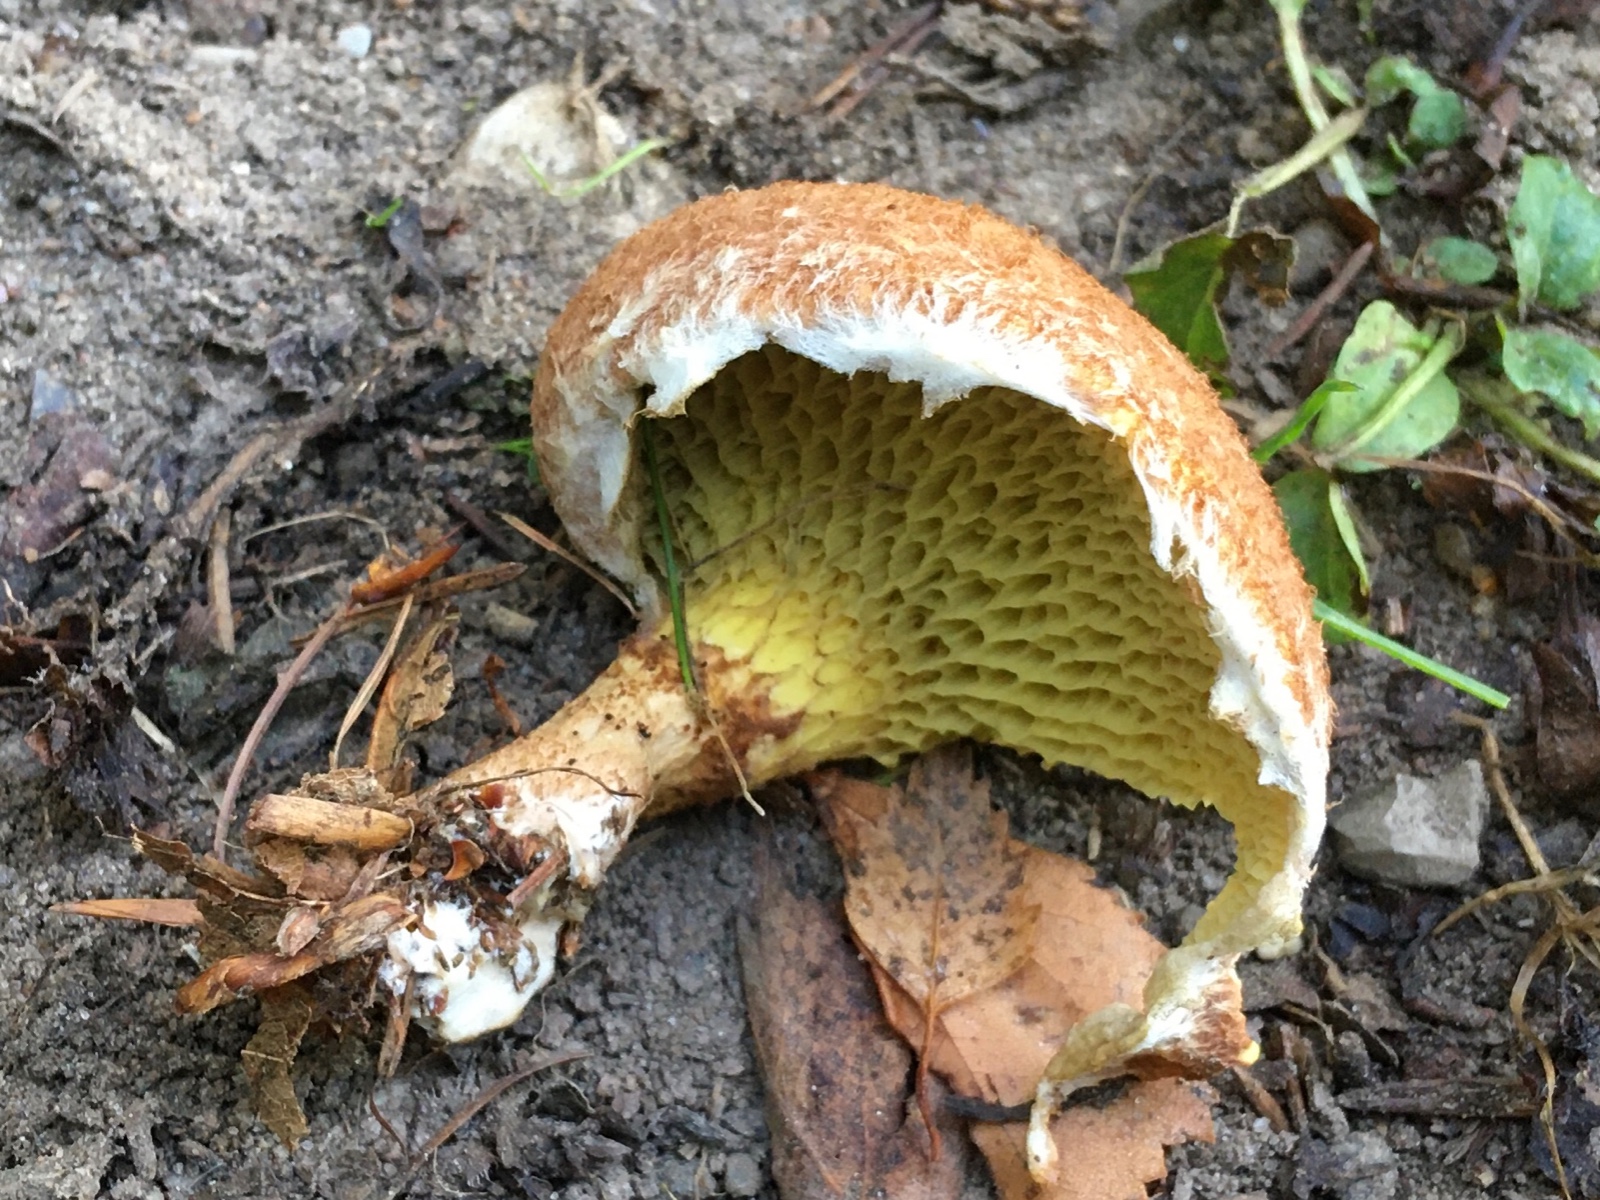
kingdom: Fungi
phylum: Basidiomycota
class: Agaricomycetes
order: Boletales
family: Suillaceae
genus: Suillus
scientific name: Suillus cavipes
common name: hulstokket slimrørhat
